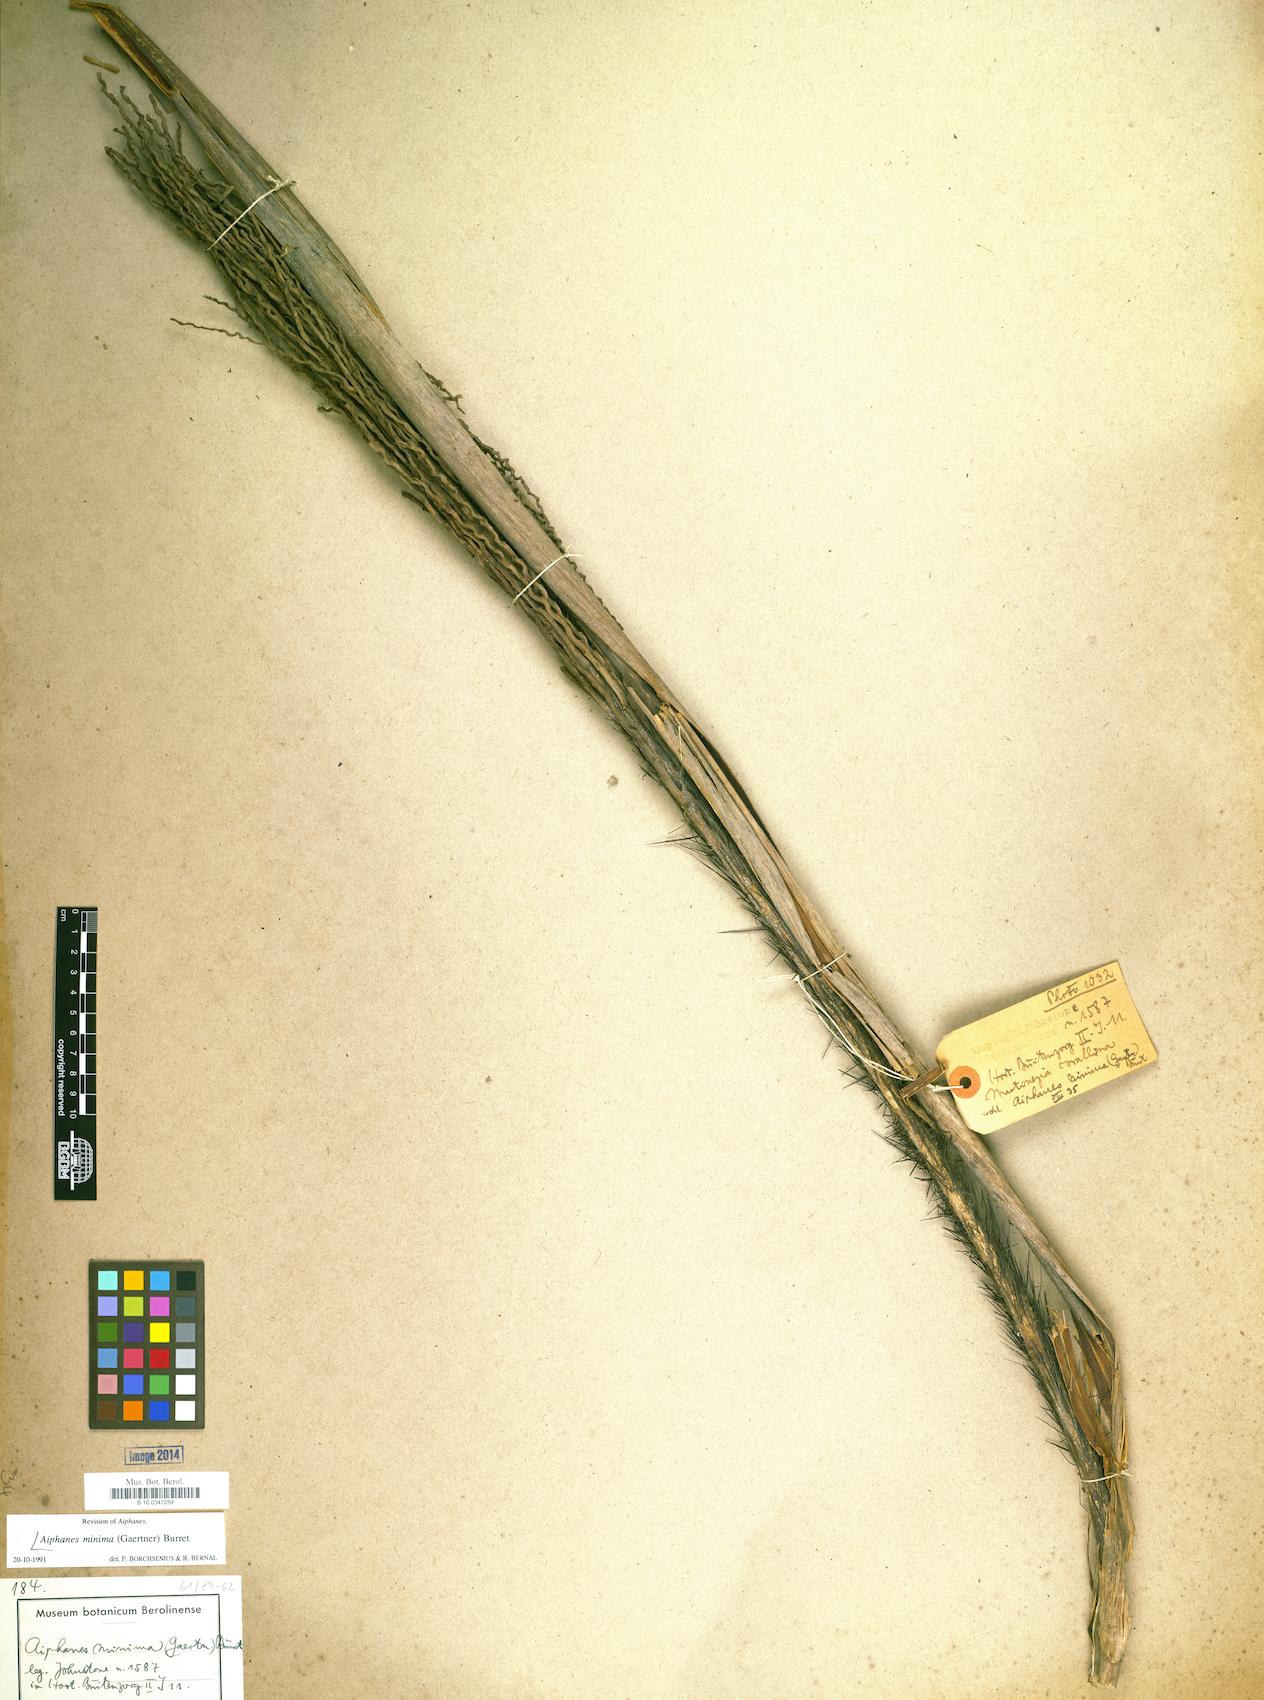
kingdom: Plantae
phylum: Tracheophyta
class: Liliopsida
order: Arecales
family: Arecaceae
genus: Aiphanes
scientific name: Aiphanes minima
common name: Grigri
